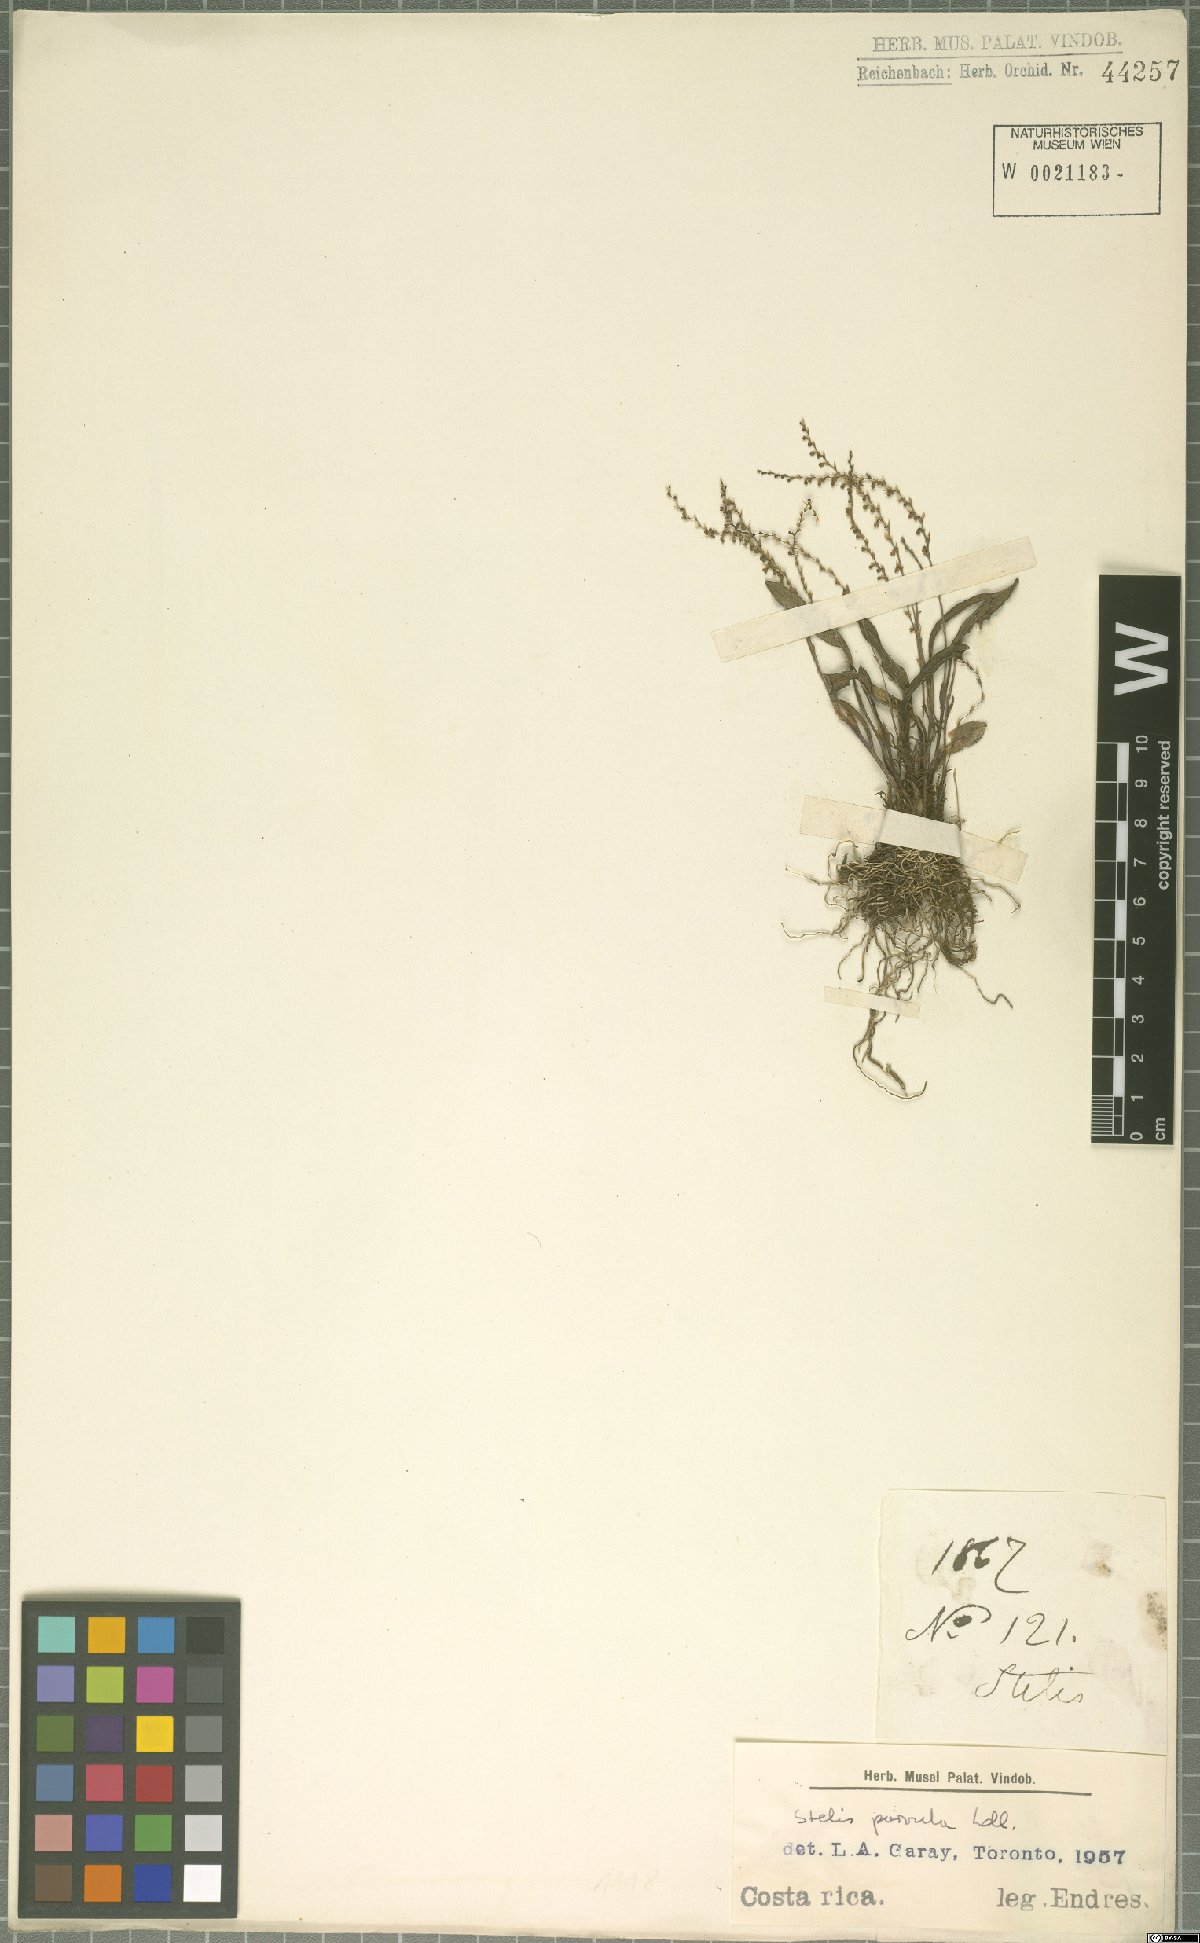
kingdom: Plantae
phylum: Tracheophyta
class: Liliopsida
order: Asparagales
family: Orchidaceae
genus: Stelis
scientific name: Stelis parvula
